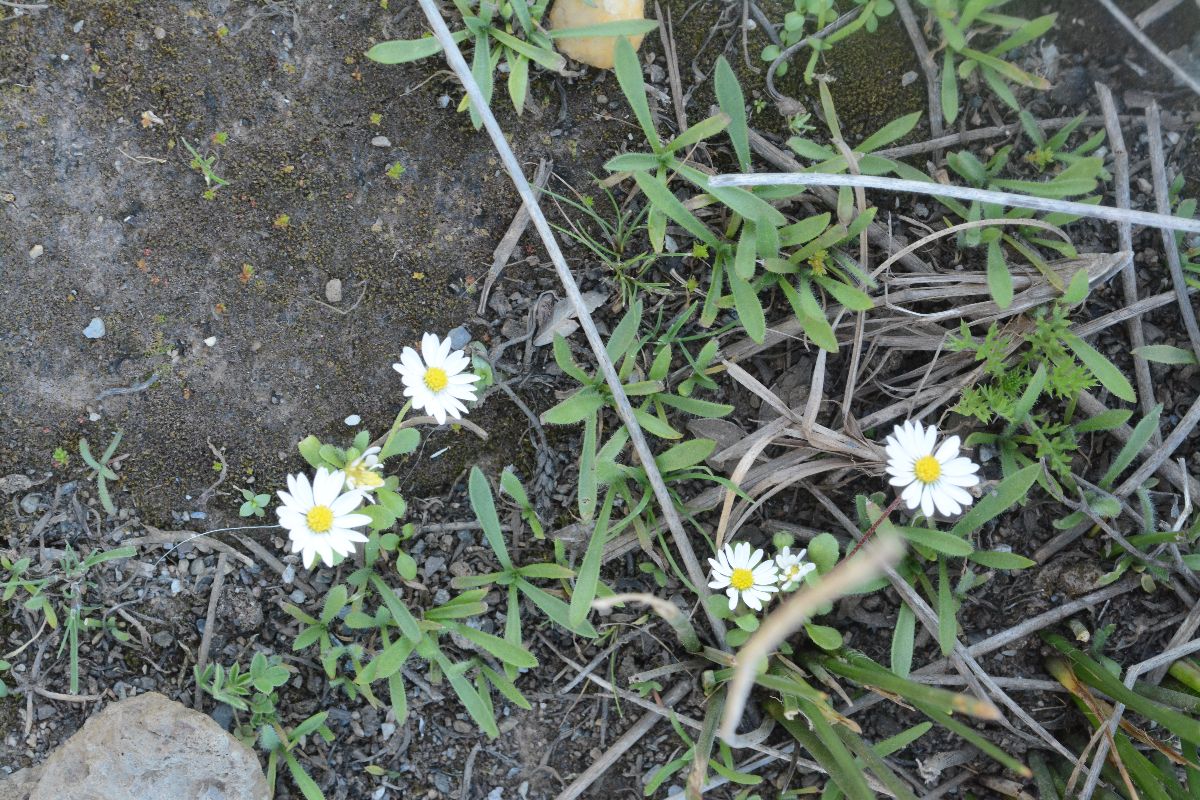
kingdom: Plantae
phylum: Tracheophyta
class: Magnoliopsida
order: Asterales
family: Asteraceae
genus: Bellis
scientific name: Bellis perennis
